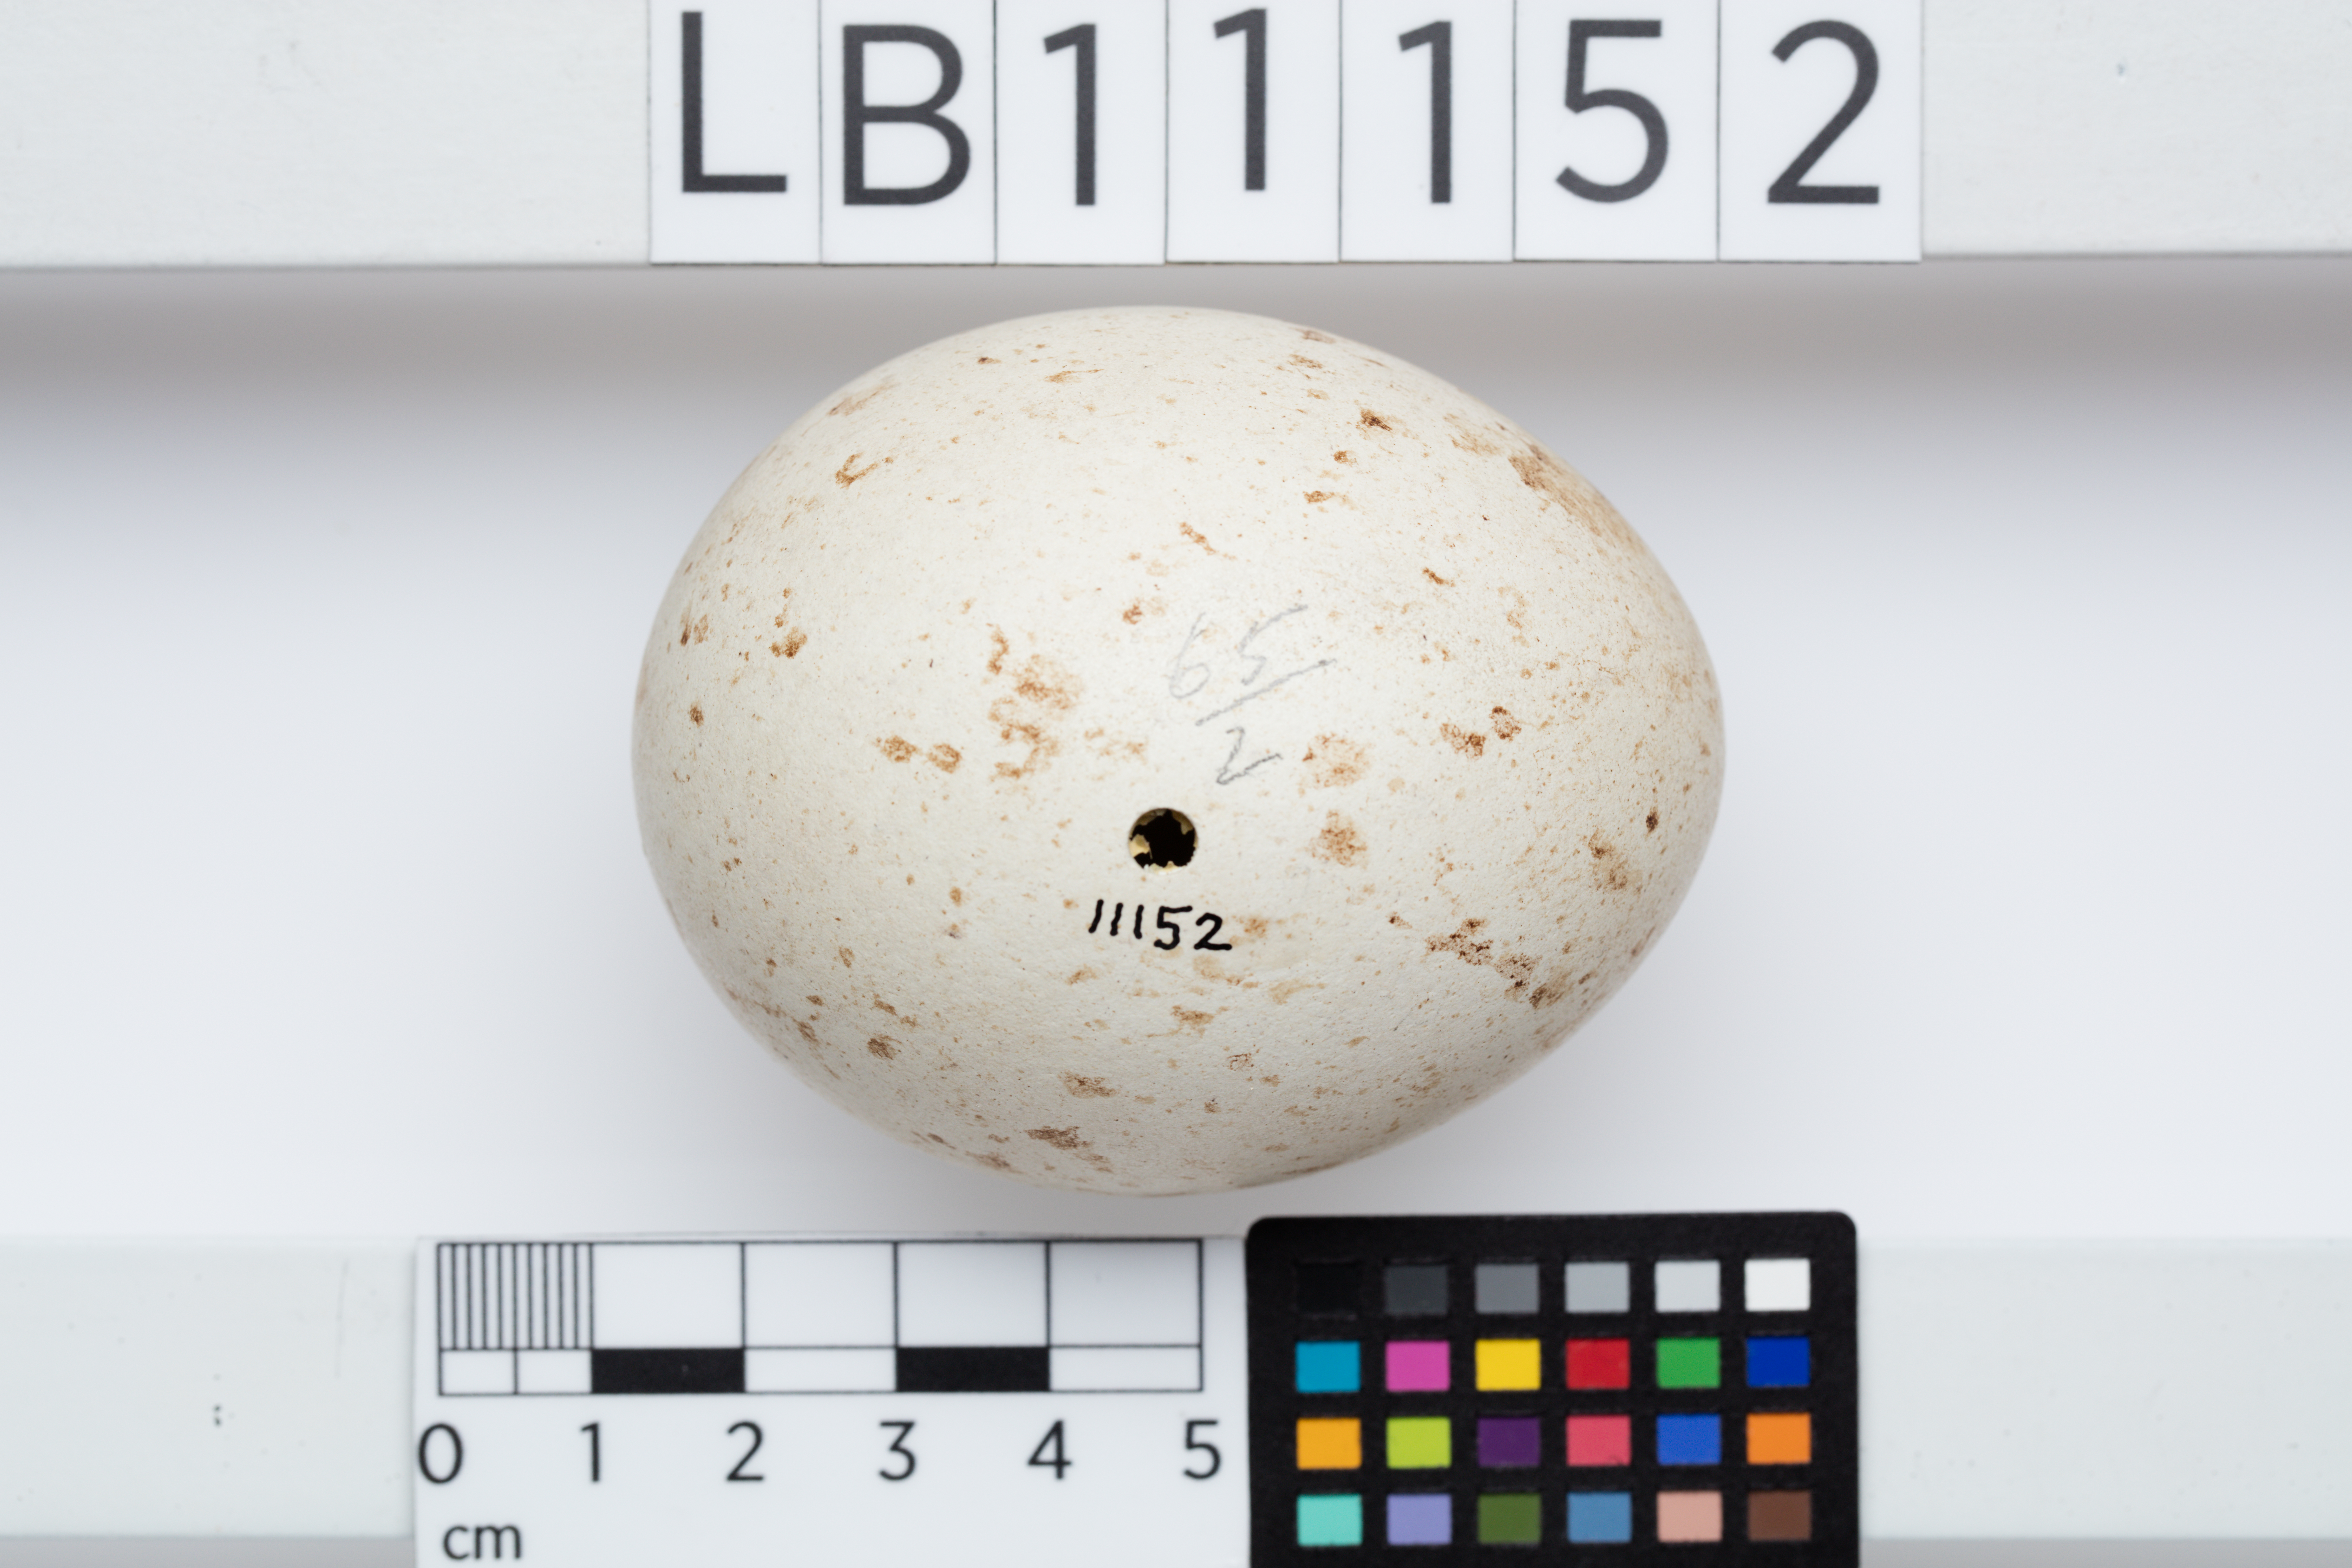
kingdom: Animalia
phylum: Chordata
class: Aves
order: Accipitriformes
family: Accipitridae
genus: Aquila
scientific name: Aquila audax
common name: Wedge-tailed eagle
